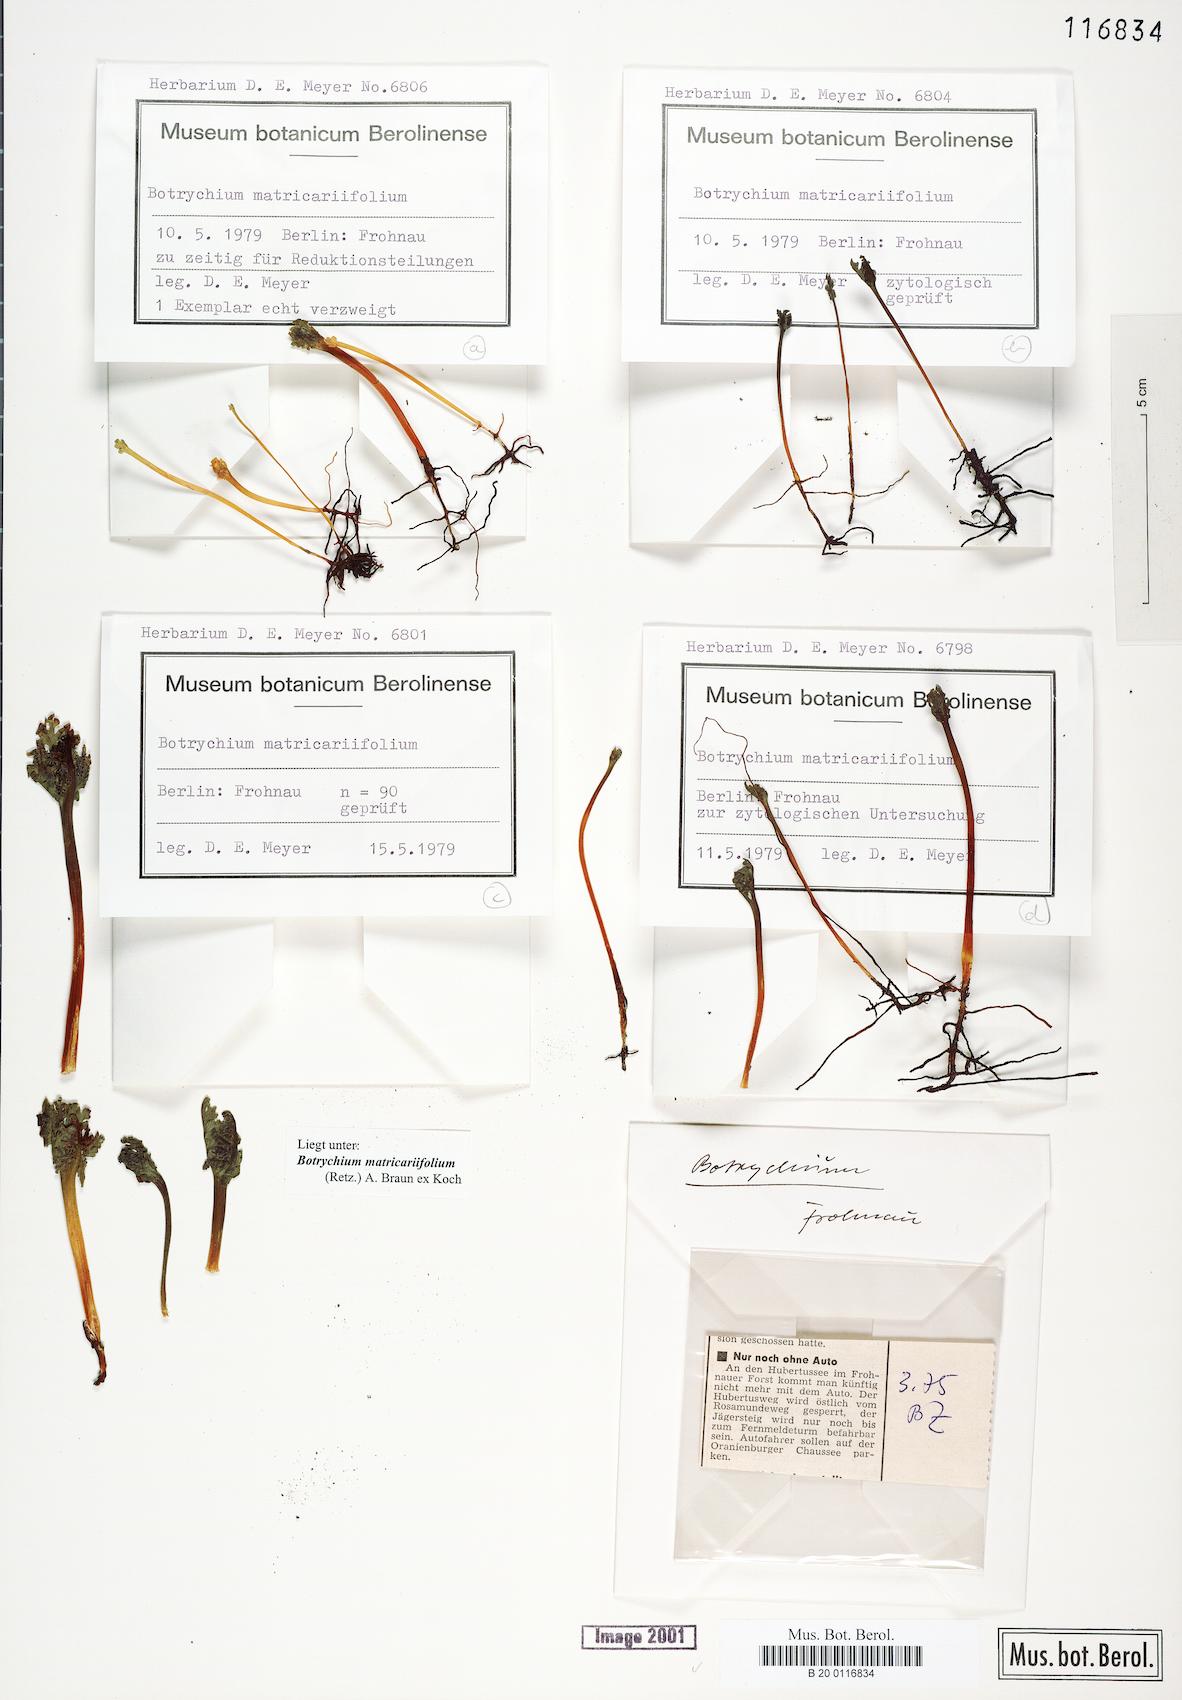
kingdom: Plantae
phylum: Tracheophyta
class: Polypodiopsida
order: Ophioglossales
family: Ophioglossaceae
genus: Botrychium
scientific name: Botrychium matricariifolium
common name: Branched moonwort
